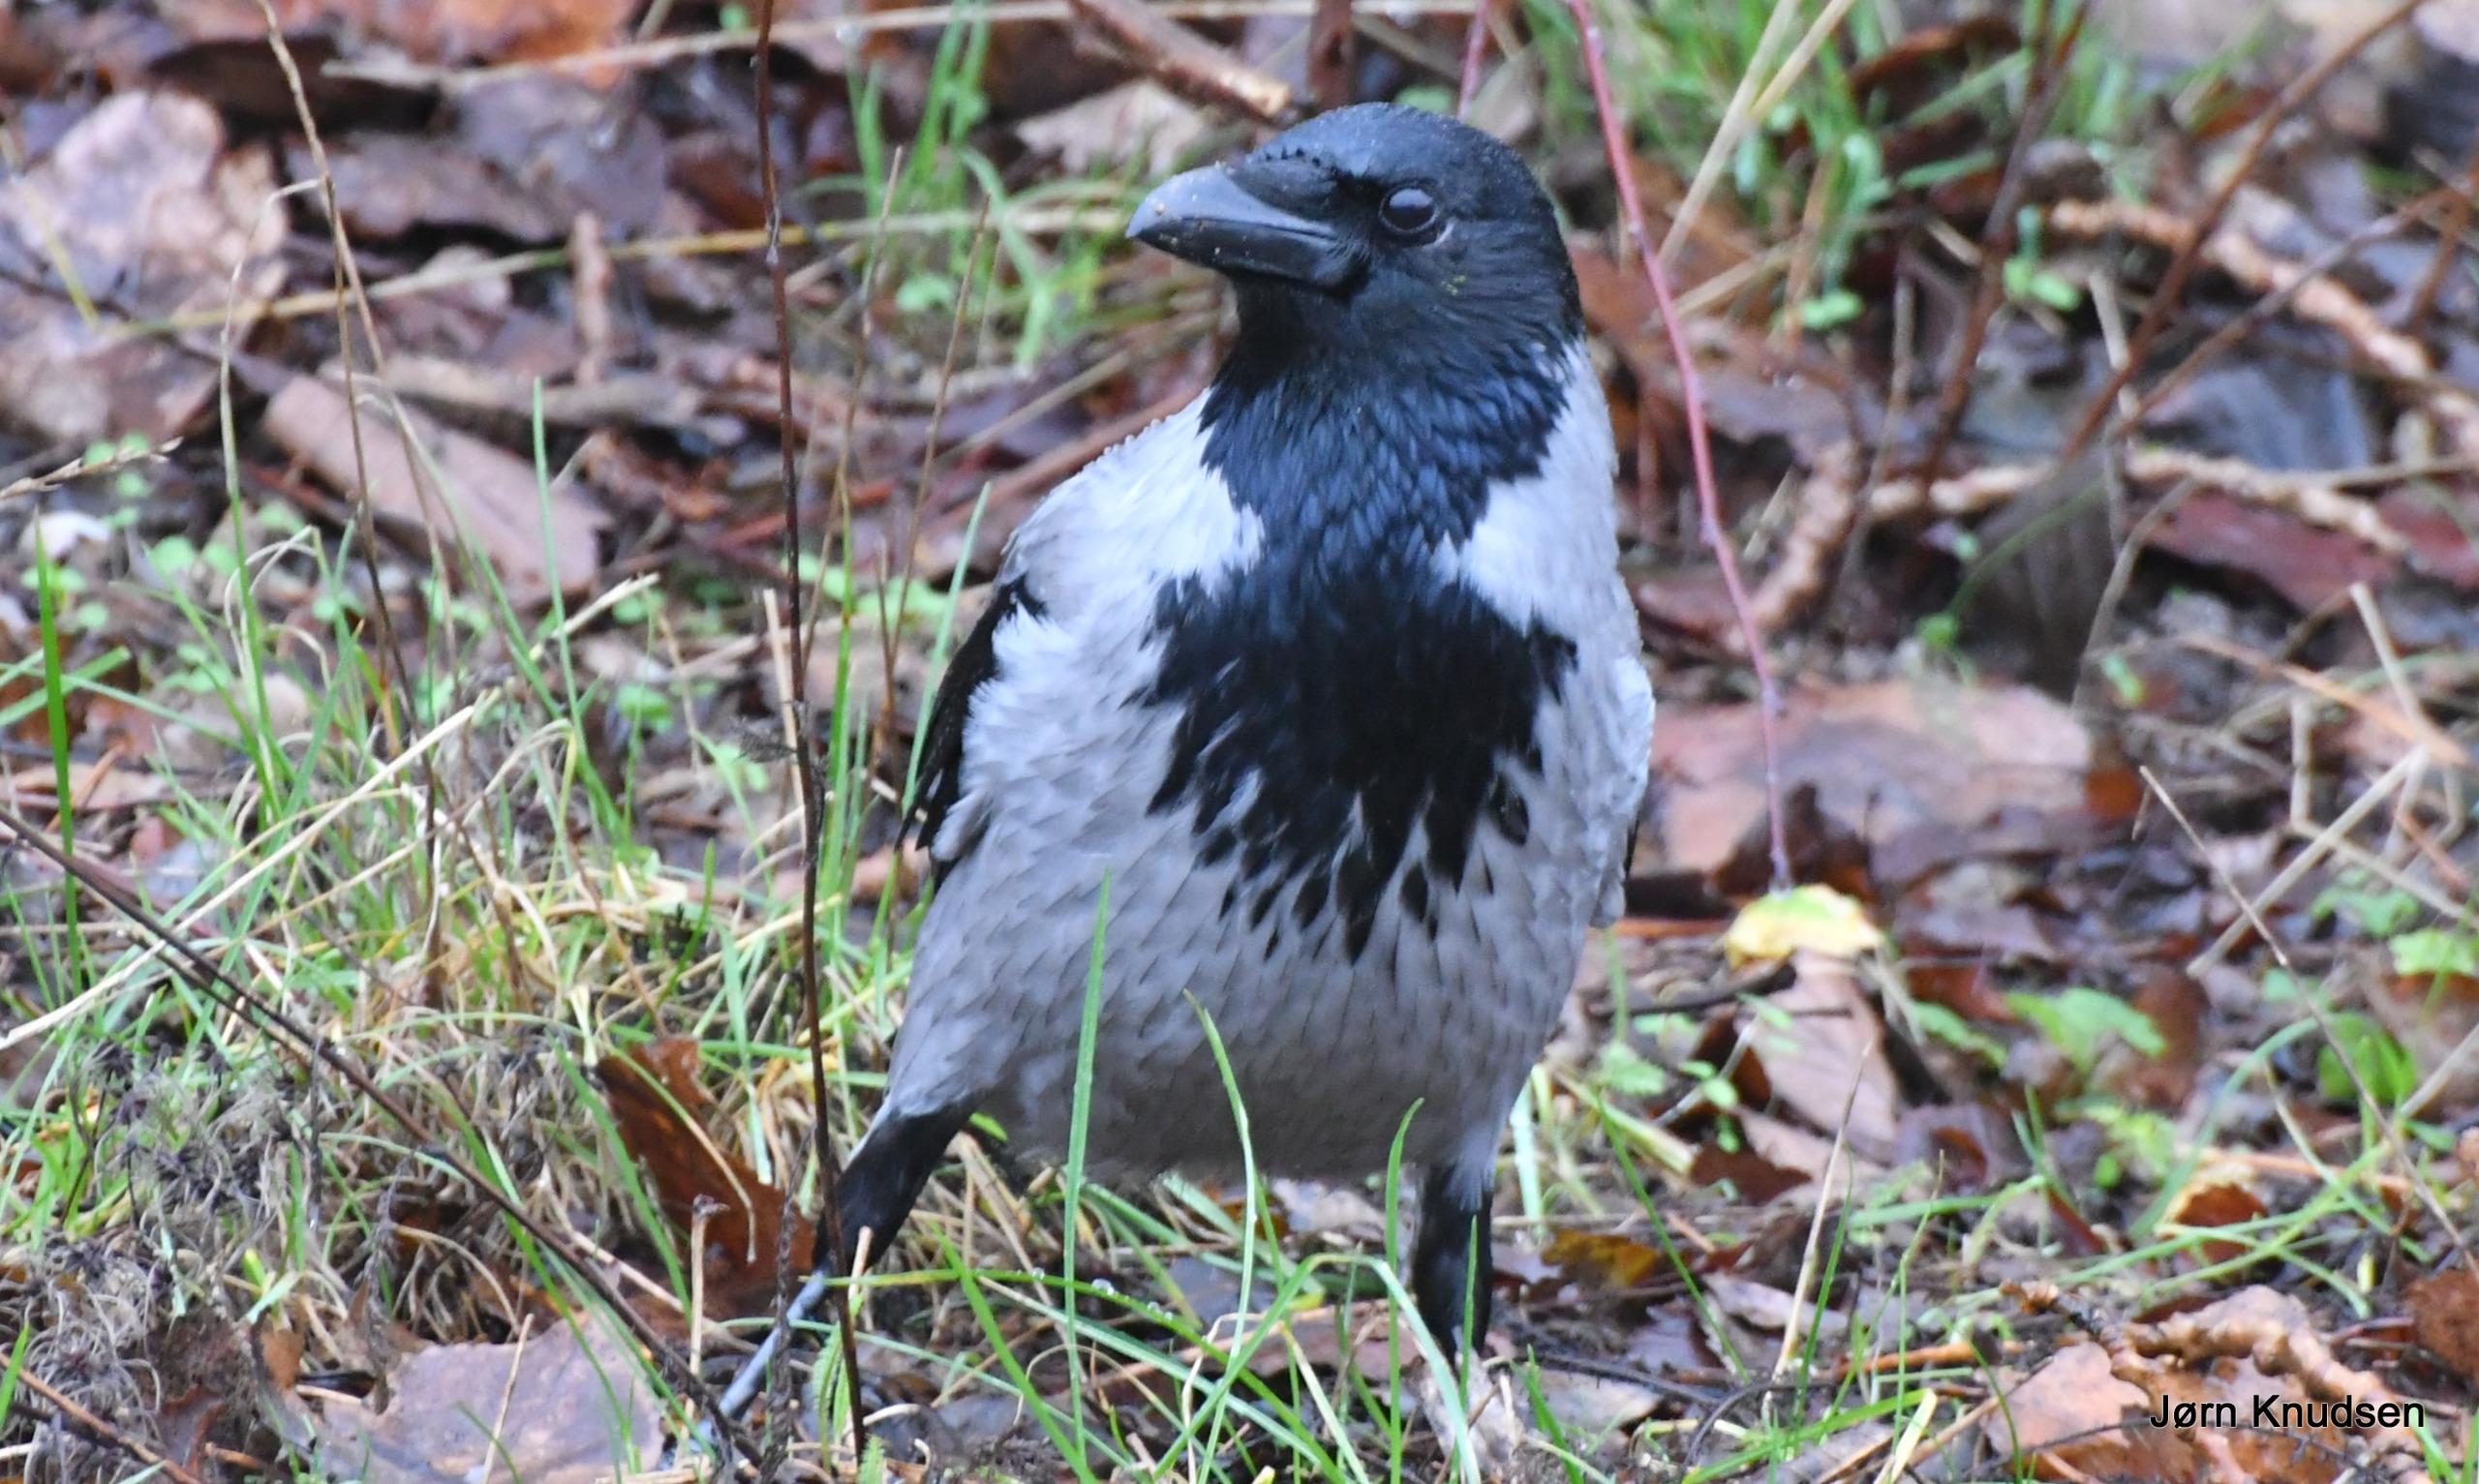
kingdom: Animalia
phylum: Chordata
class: Aves
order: Passeriformes
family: Corvidae
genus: Corvus
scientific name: Corvus cornix
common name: Gråkrage
